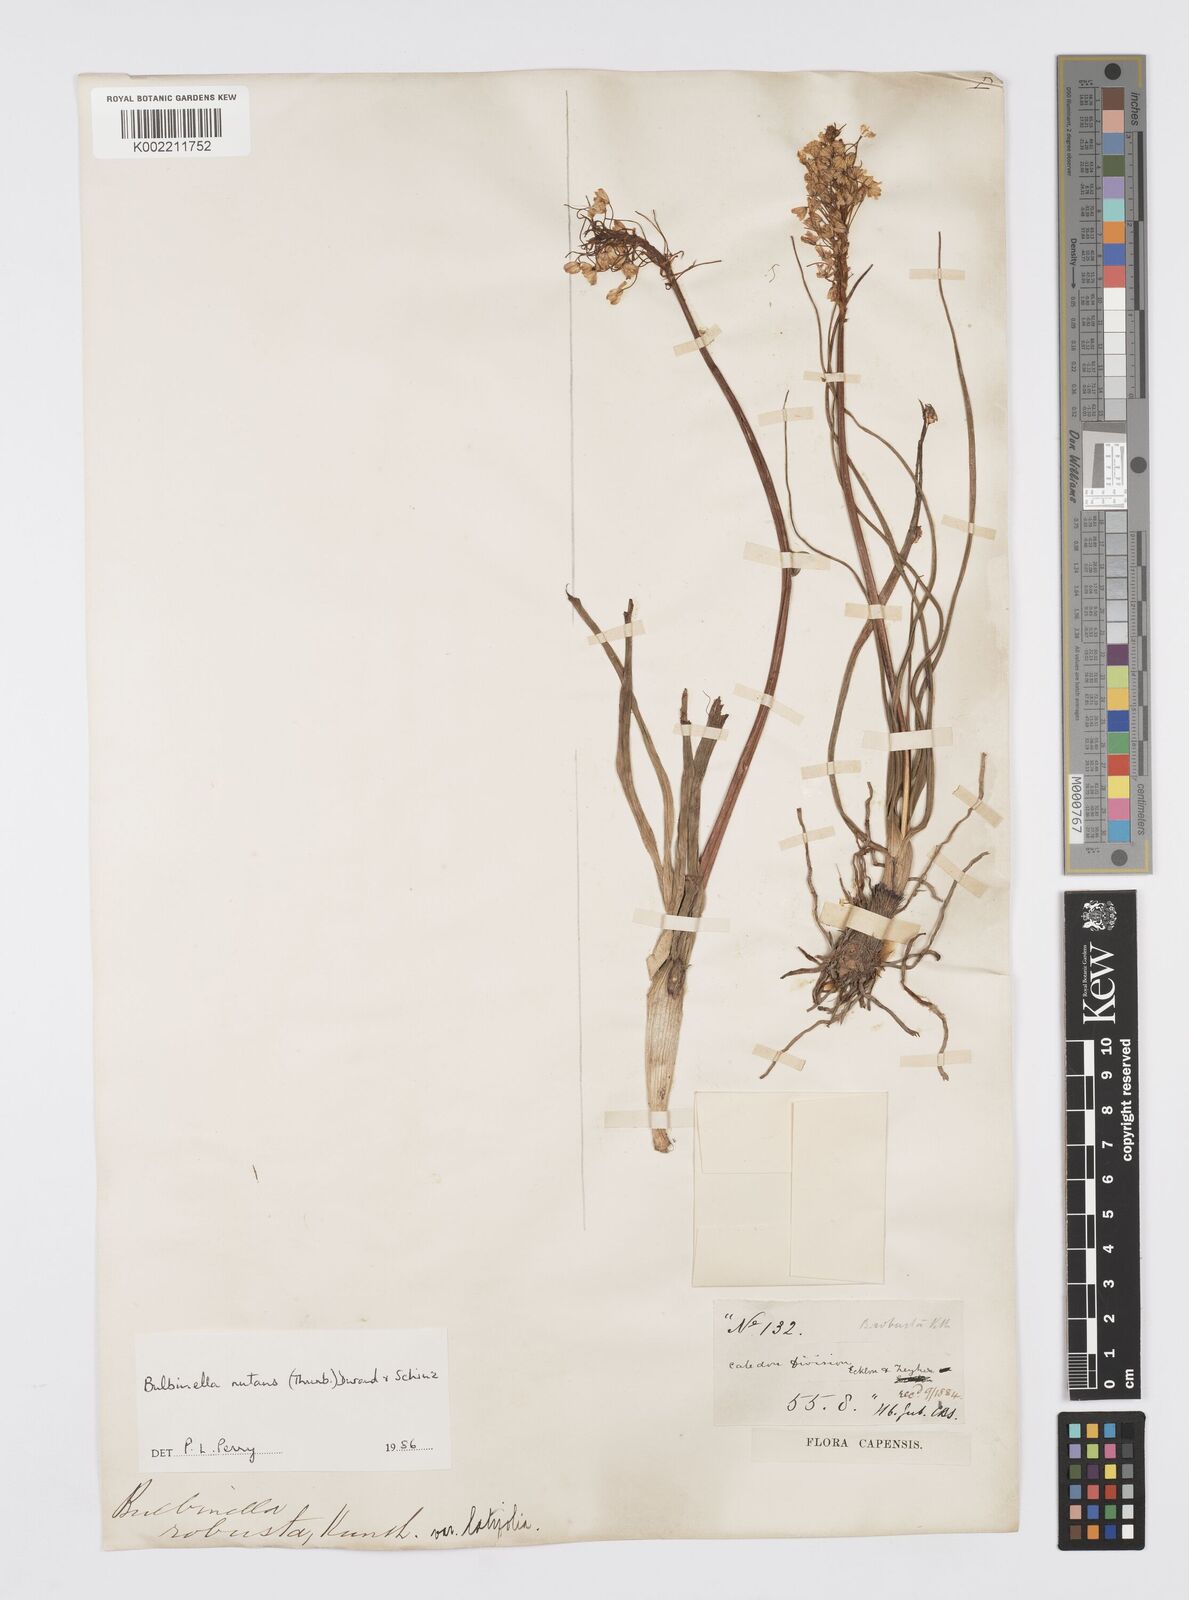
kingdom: Plantae
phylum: Tracheophyta
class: Liliopsida
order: Asparagales
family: Asphodelaceae
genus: Bulbinella
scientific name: Bulbinella nutans
